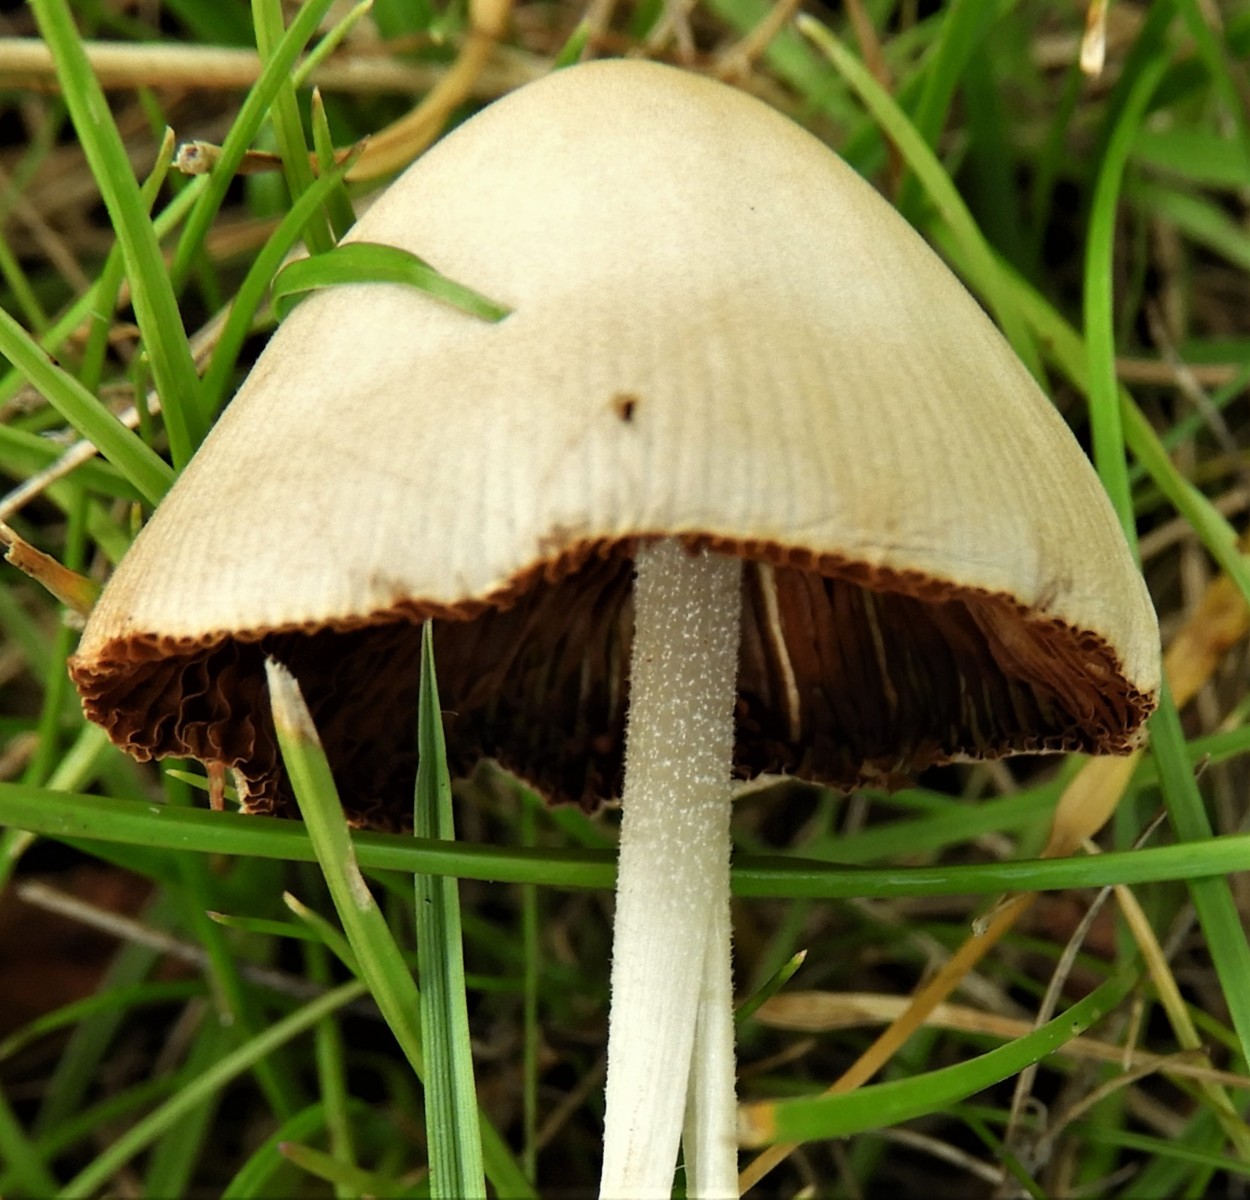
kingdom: Fungi
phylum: Basidiomycota
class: Agaricomycetes
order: Agaricales
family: Bolbitiaceae
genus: Conocybe
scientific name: Conocybe apala
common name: mælkehvid keglehat
